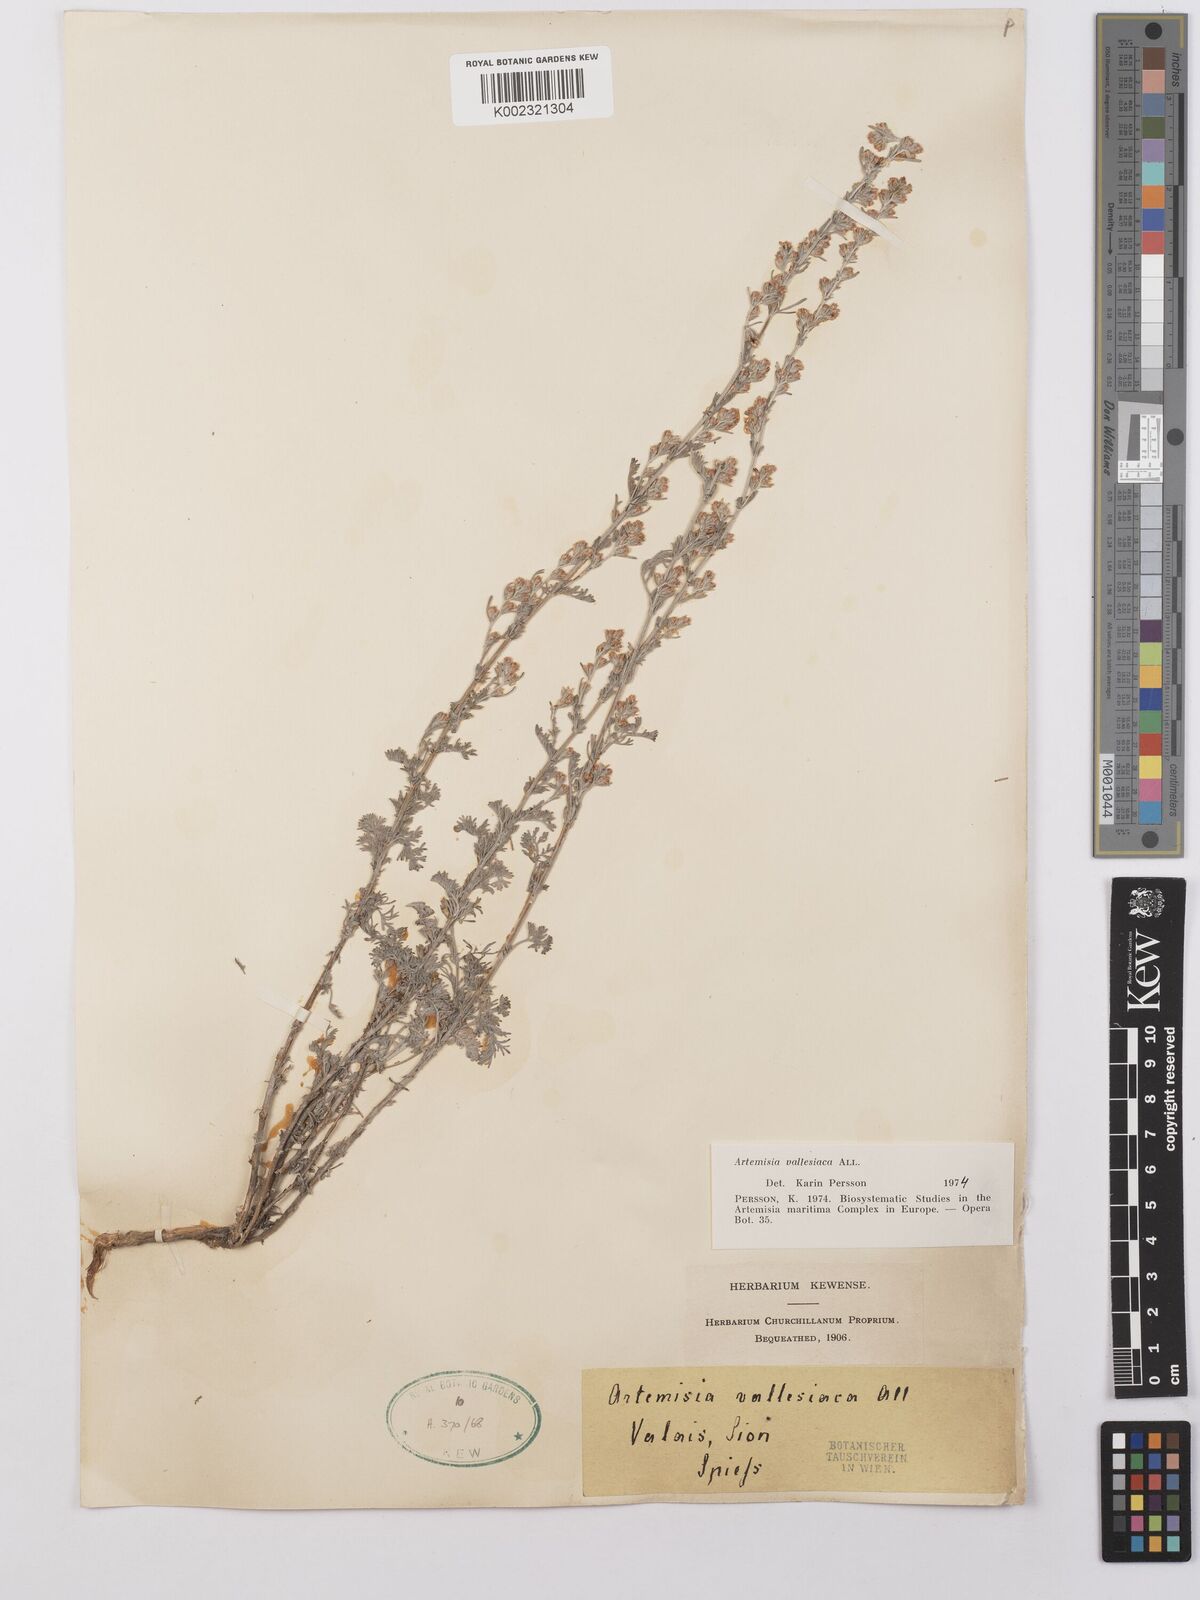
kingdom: Plantae
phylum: Tracheophyta
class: Magnoliopsida
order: Asterales
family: Asteraceae
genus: Artemisia
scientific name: Artemisia vallesiaca
